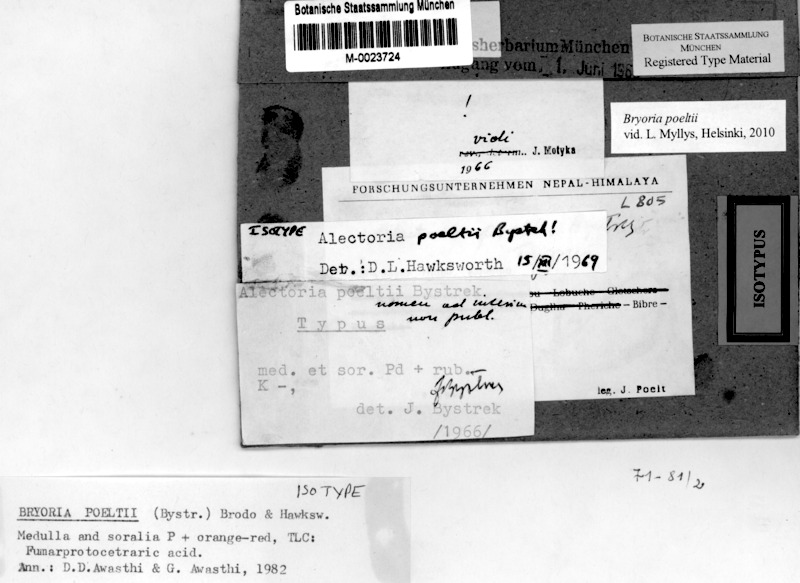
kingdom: Fungi
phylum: Ascomycota
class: Lecanoromycetes
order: Lecanorales
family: Parmeliaceae
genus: Bryoria
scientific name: Bryoria poeltii
